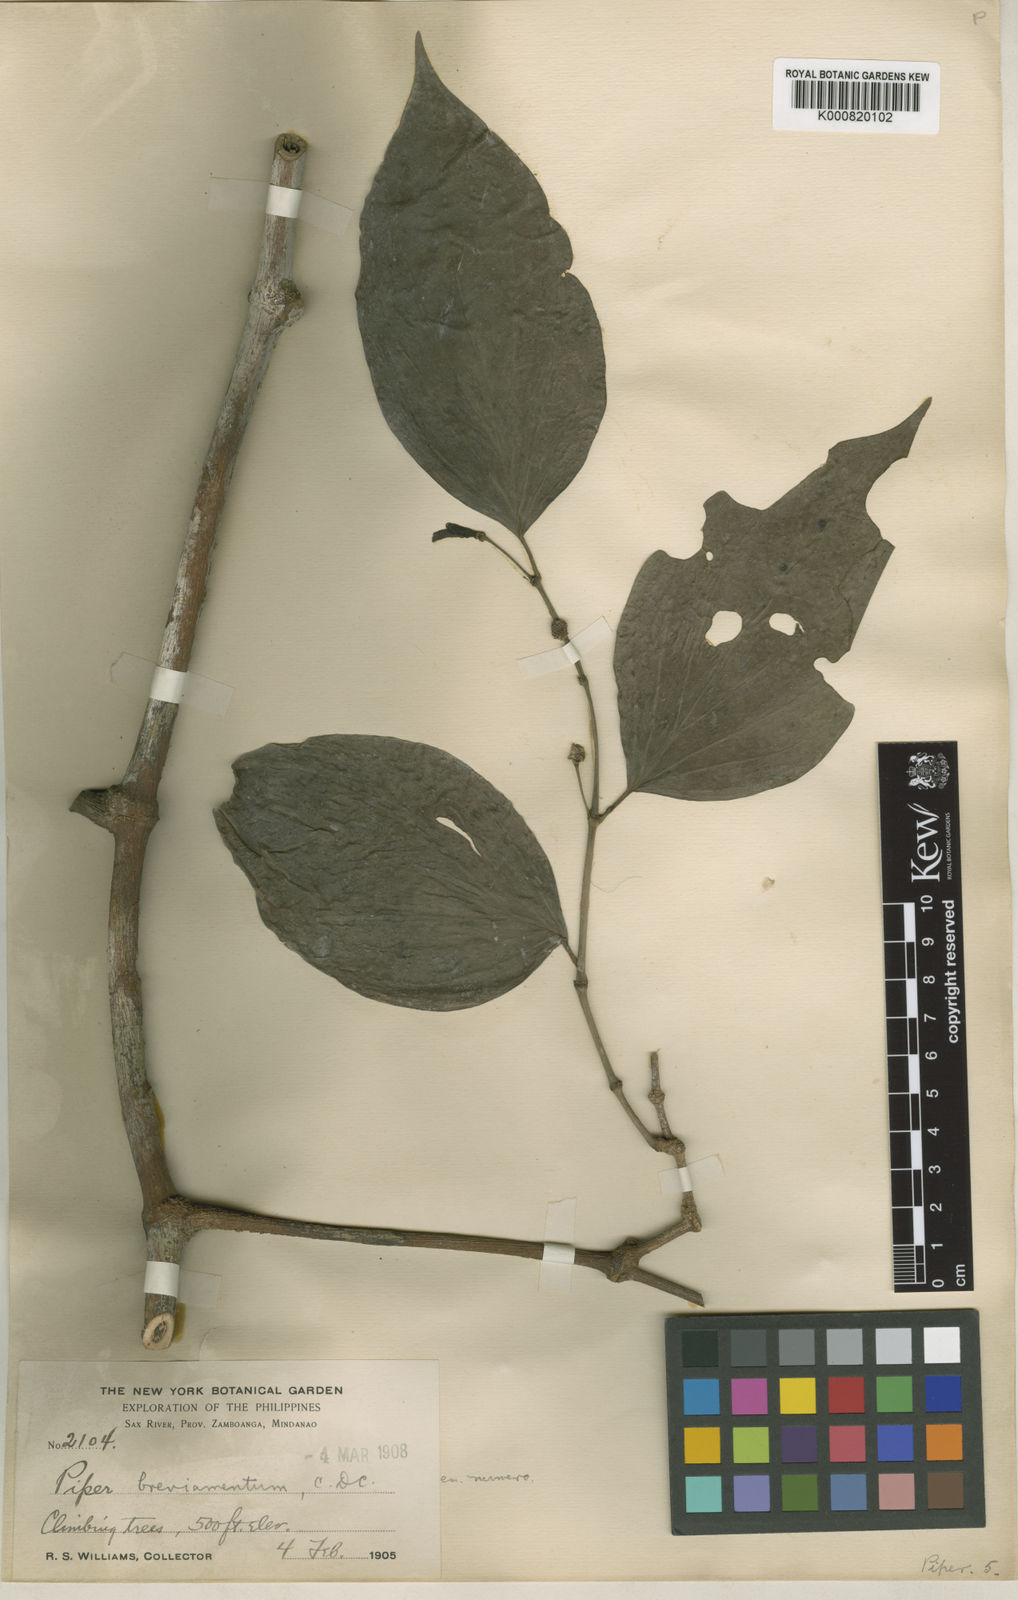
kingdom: Plantae
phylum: Tracheophyta
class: Magnoliopsida
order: Piperales
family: Piperaceae
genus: Piper
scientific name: Piper breviamentum
